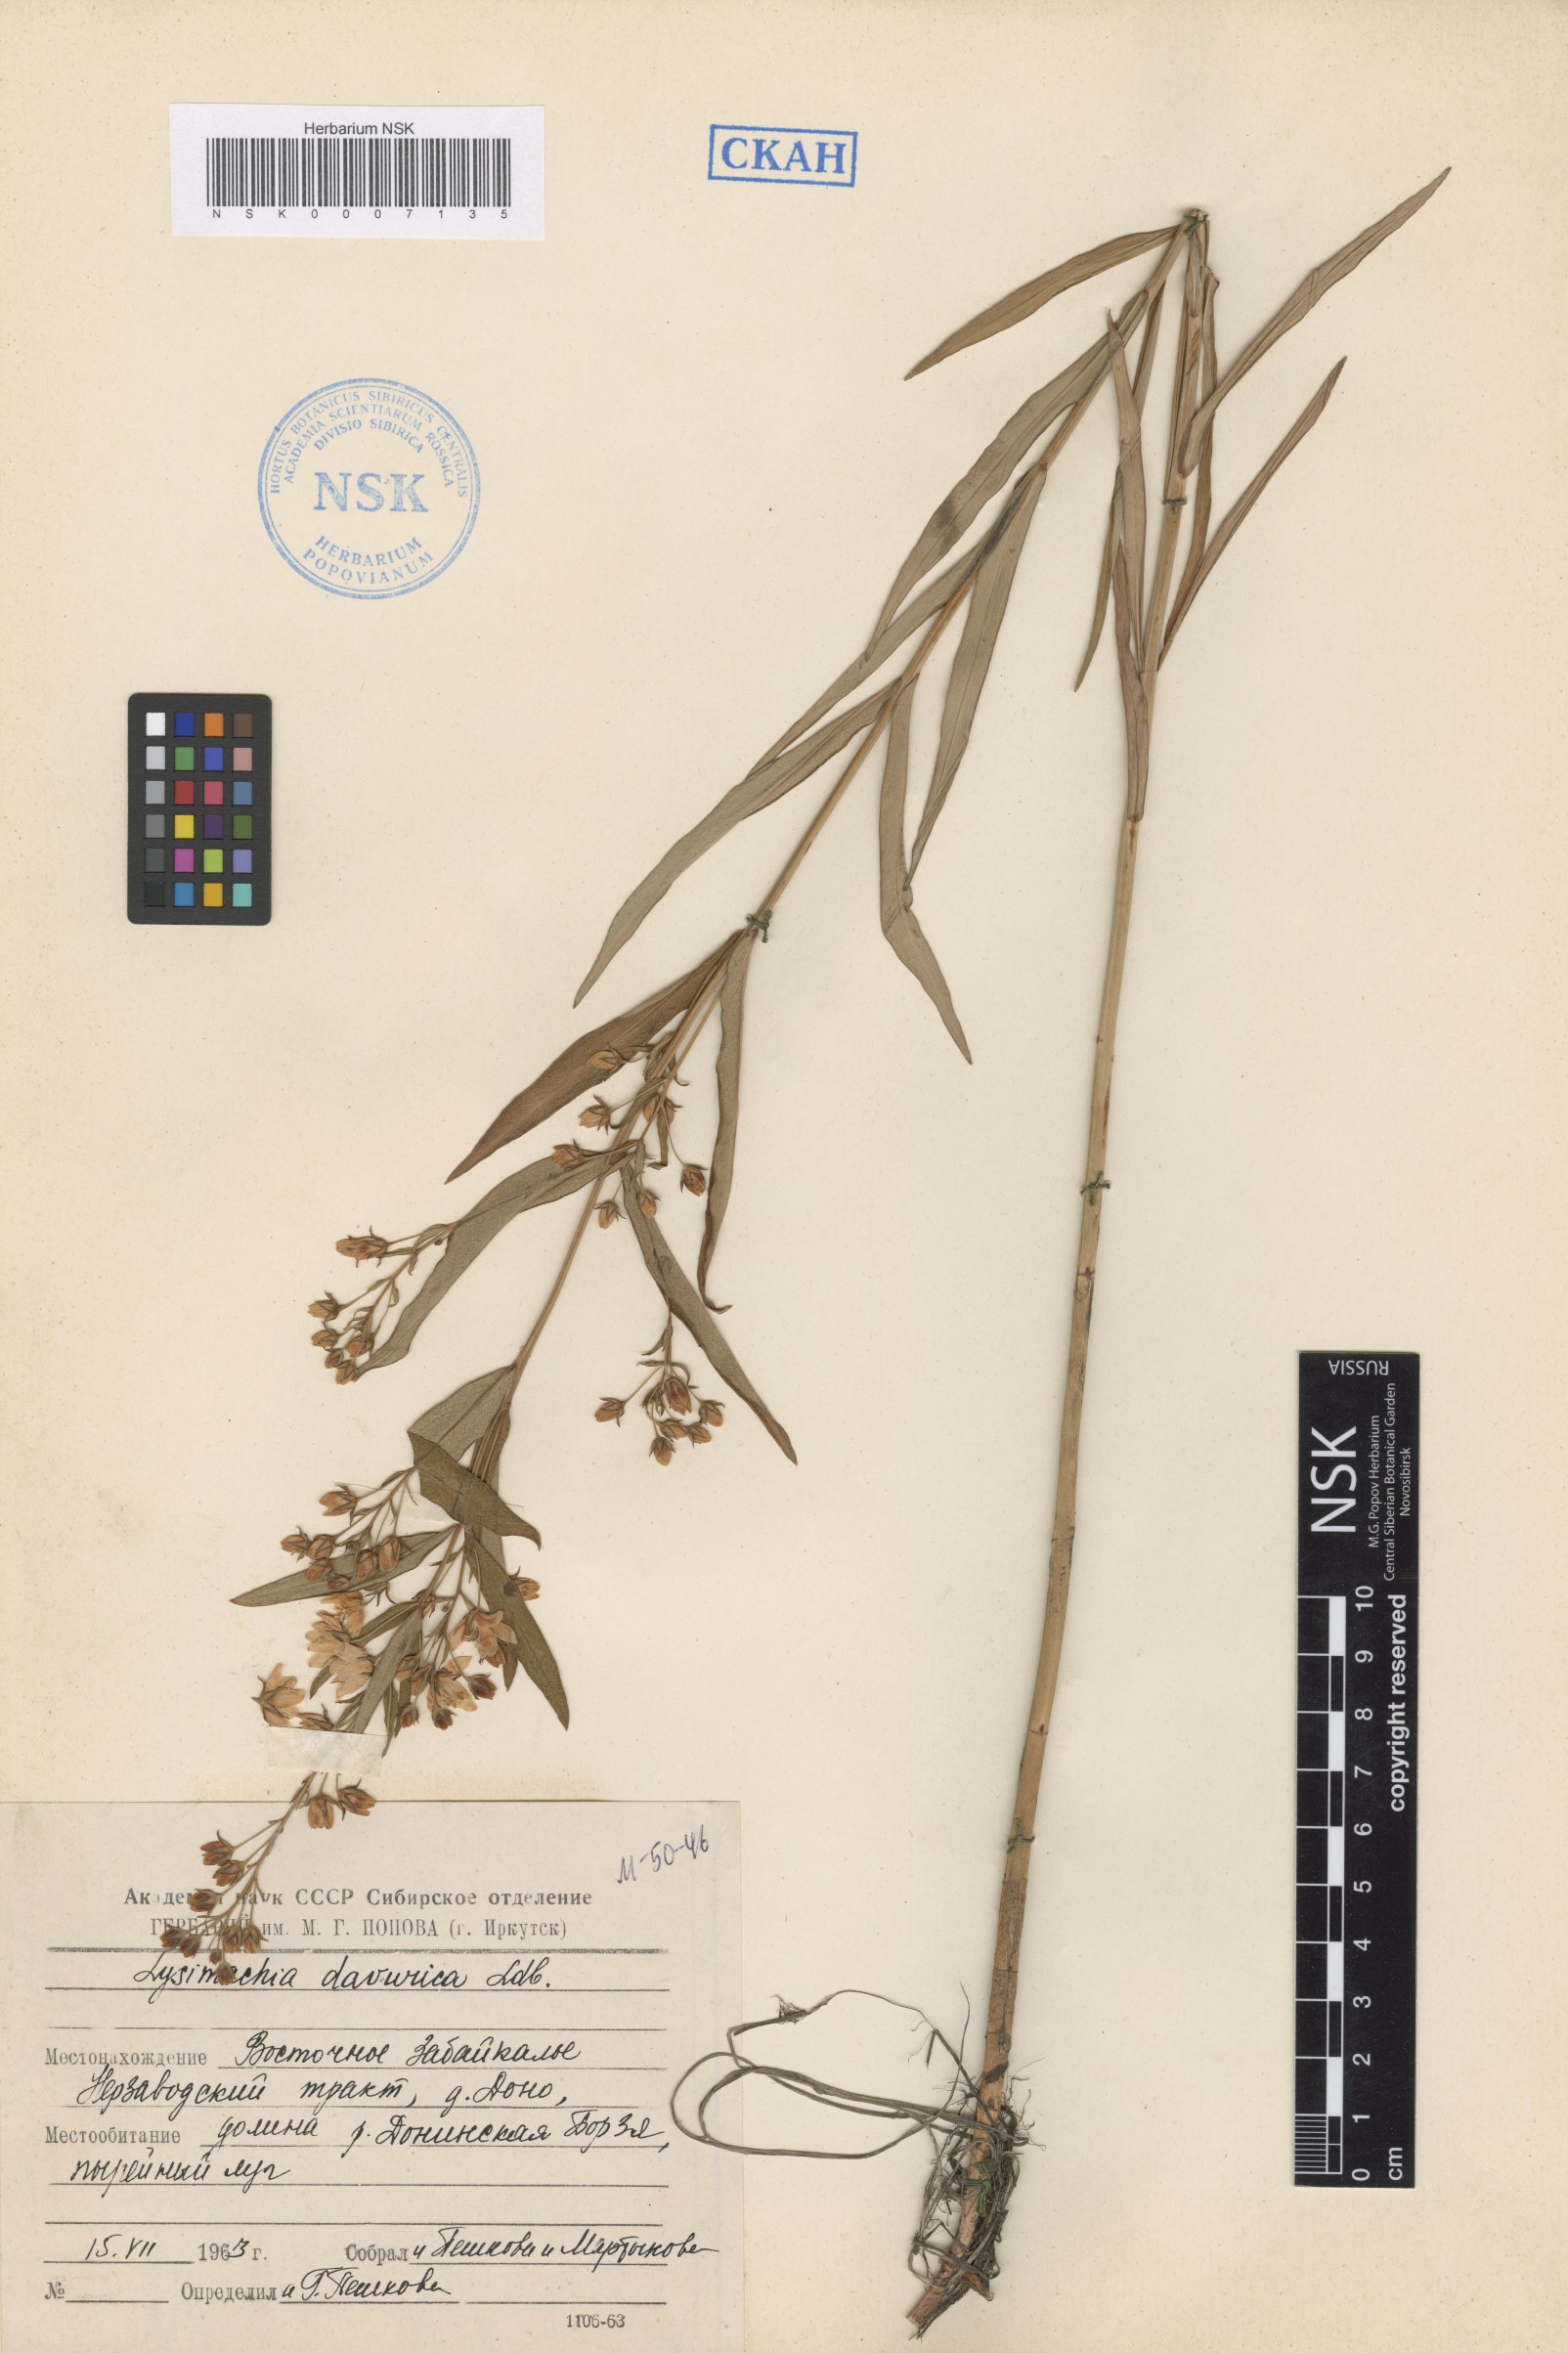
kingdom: Plantae
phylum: Tracheophyta
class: Magnoliopsida
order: Ericales
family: Primulaceae
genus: Lysimachia
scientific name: Lysimachia davurica
